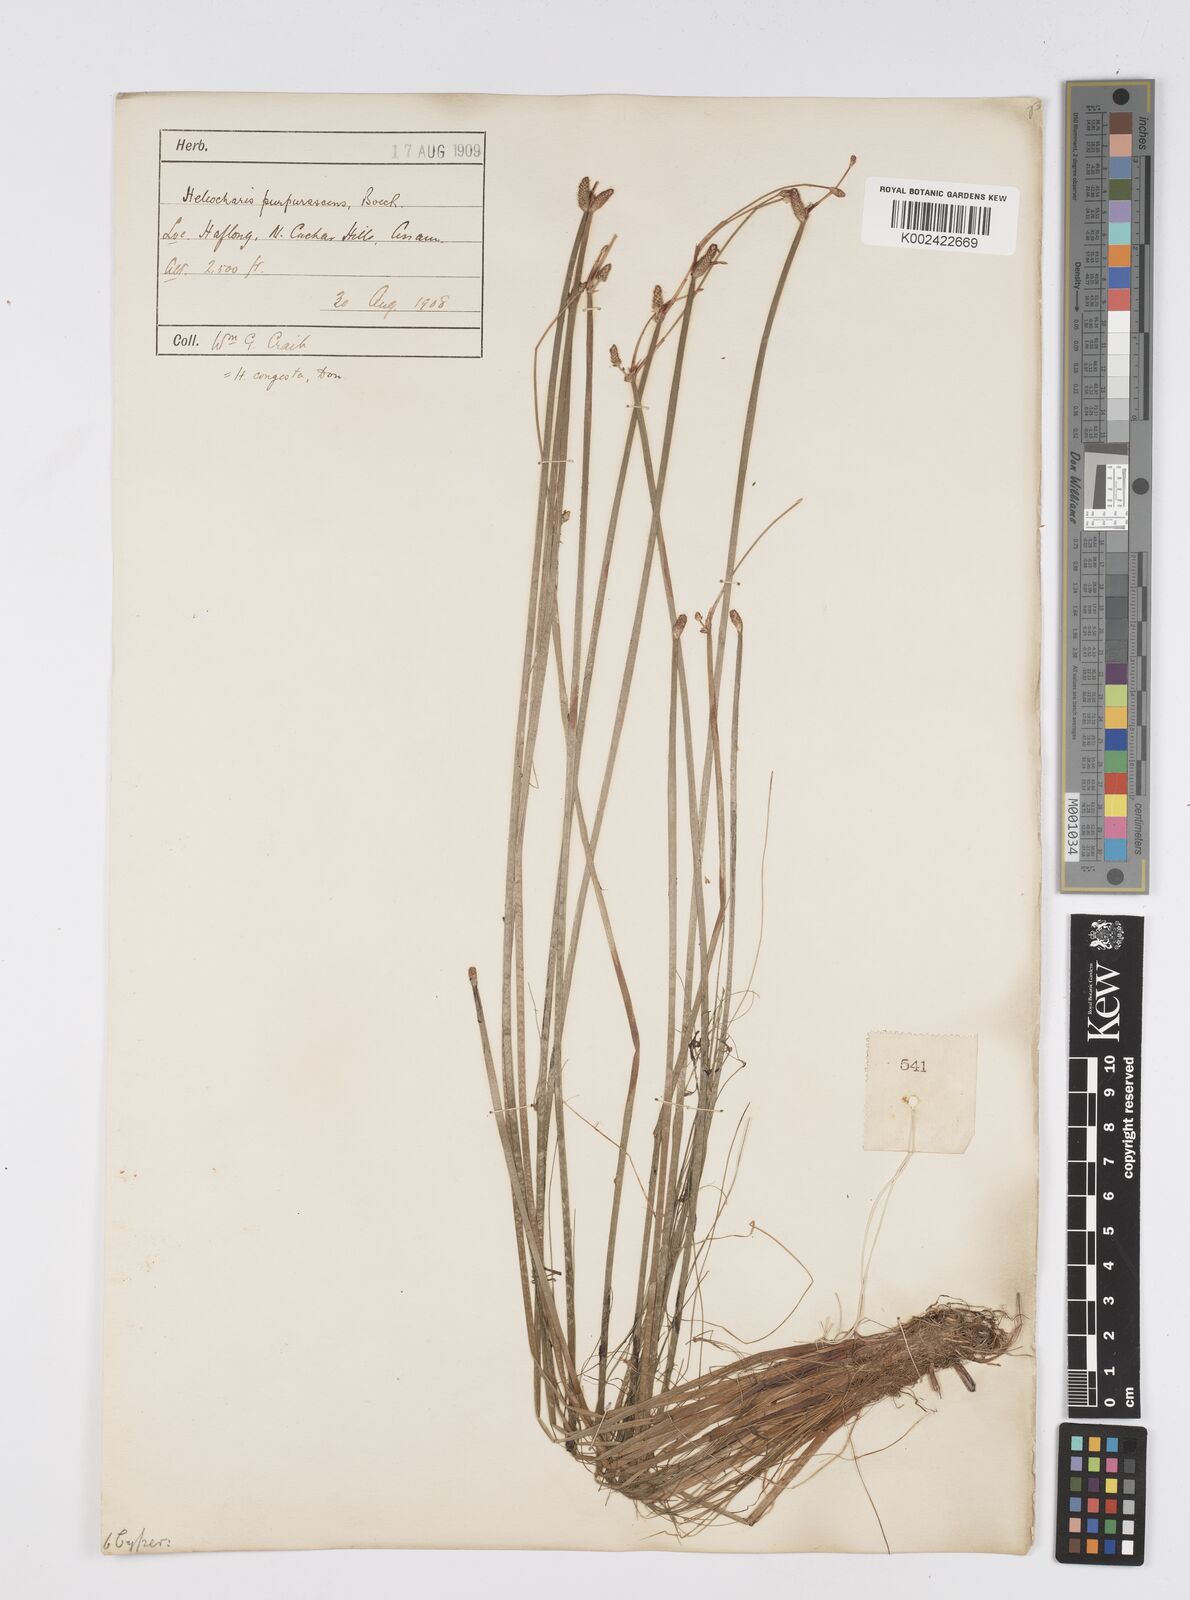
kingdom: Plantae
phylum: Tracheophyta
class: Liliopsida
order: Poales
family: Cyperaceae
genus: Eleocharis
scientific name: Eleocharis congesta
